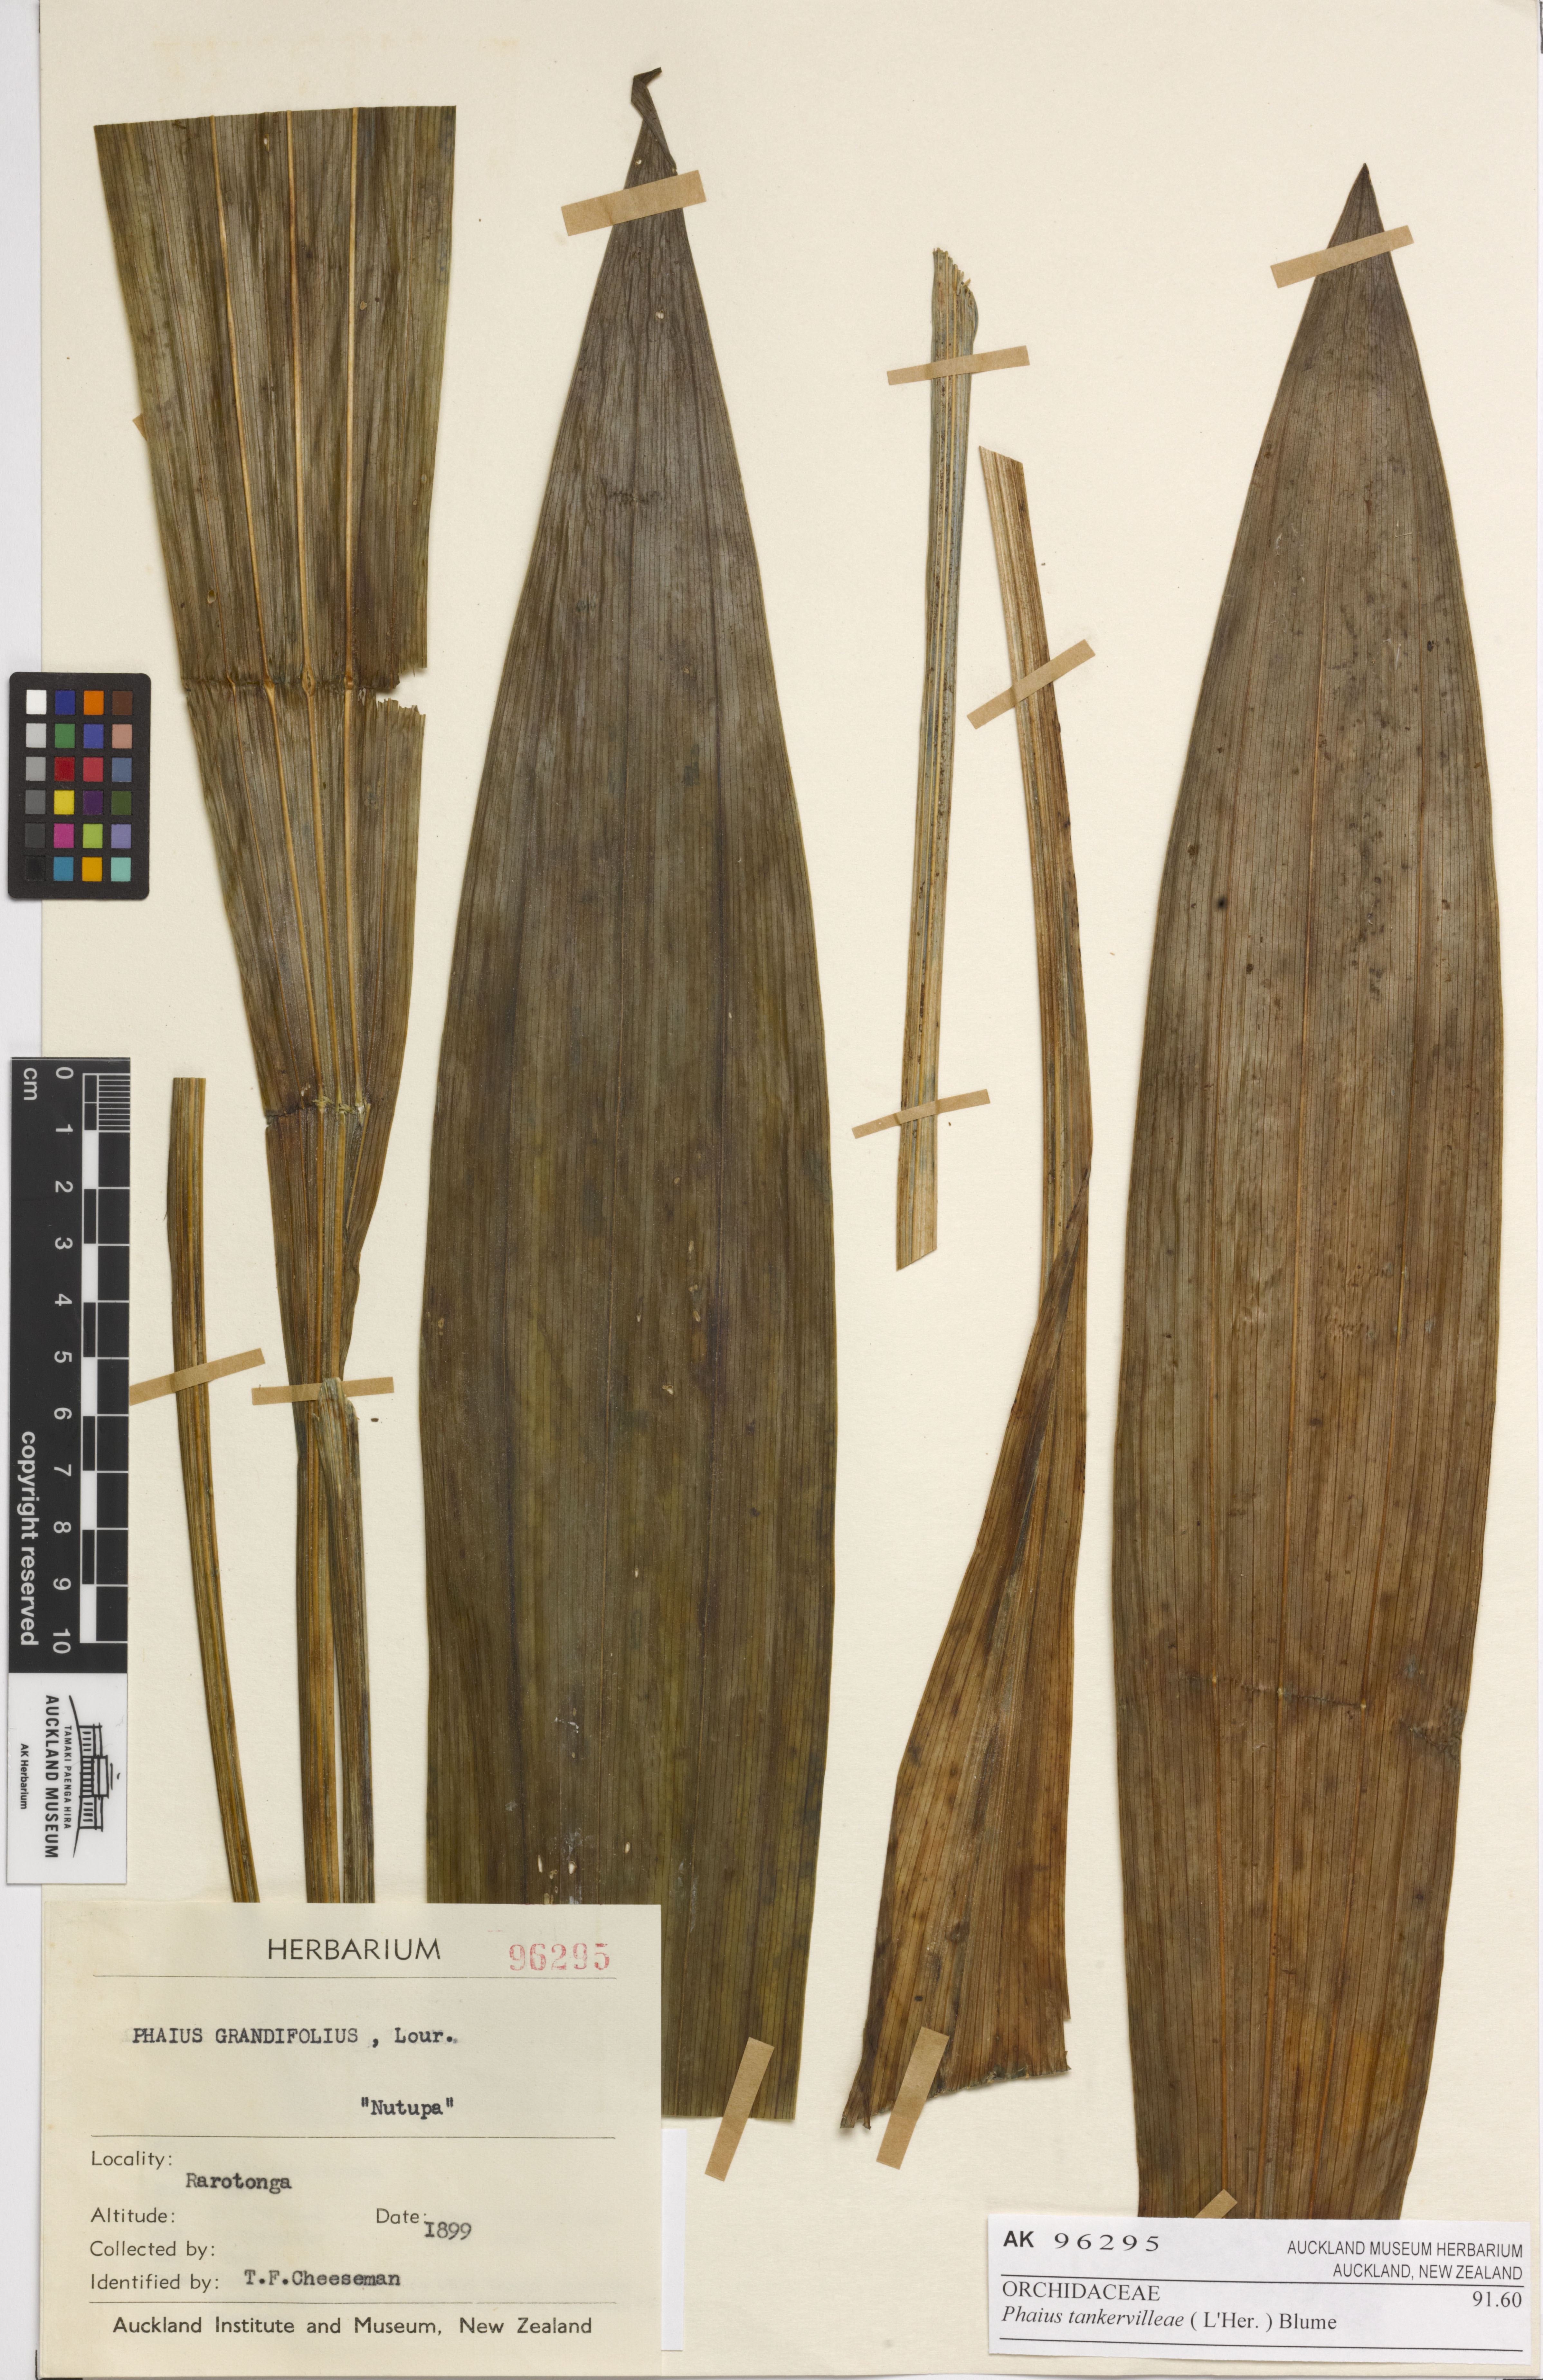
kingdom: Plantae
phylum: Tracheophyta
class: Liliopsida
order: Asparagales
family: Orchidaceae
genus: Calanthe
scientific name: Calanthe tankervilleae
